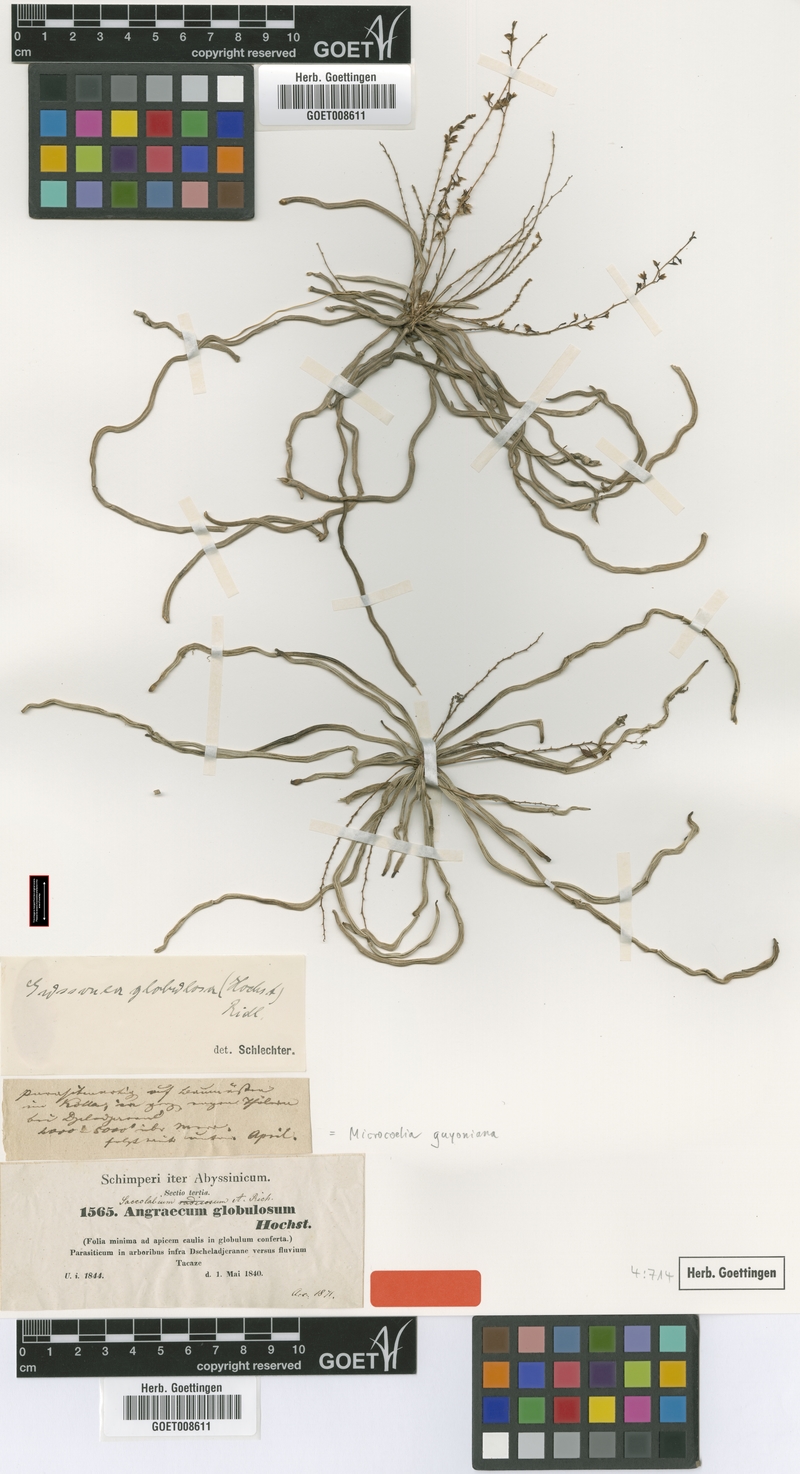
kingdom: Plantae
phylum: Tracheophyta
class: Liliopsida
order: Asparagales
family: Orchidaceae
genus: Microcoelia
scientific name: Microcoelia globulosa
